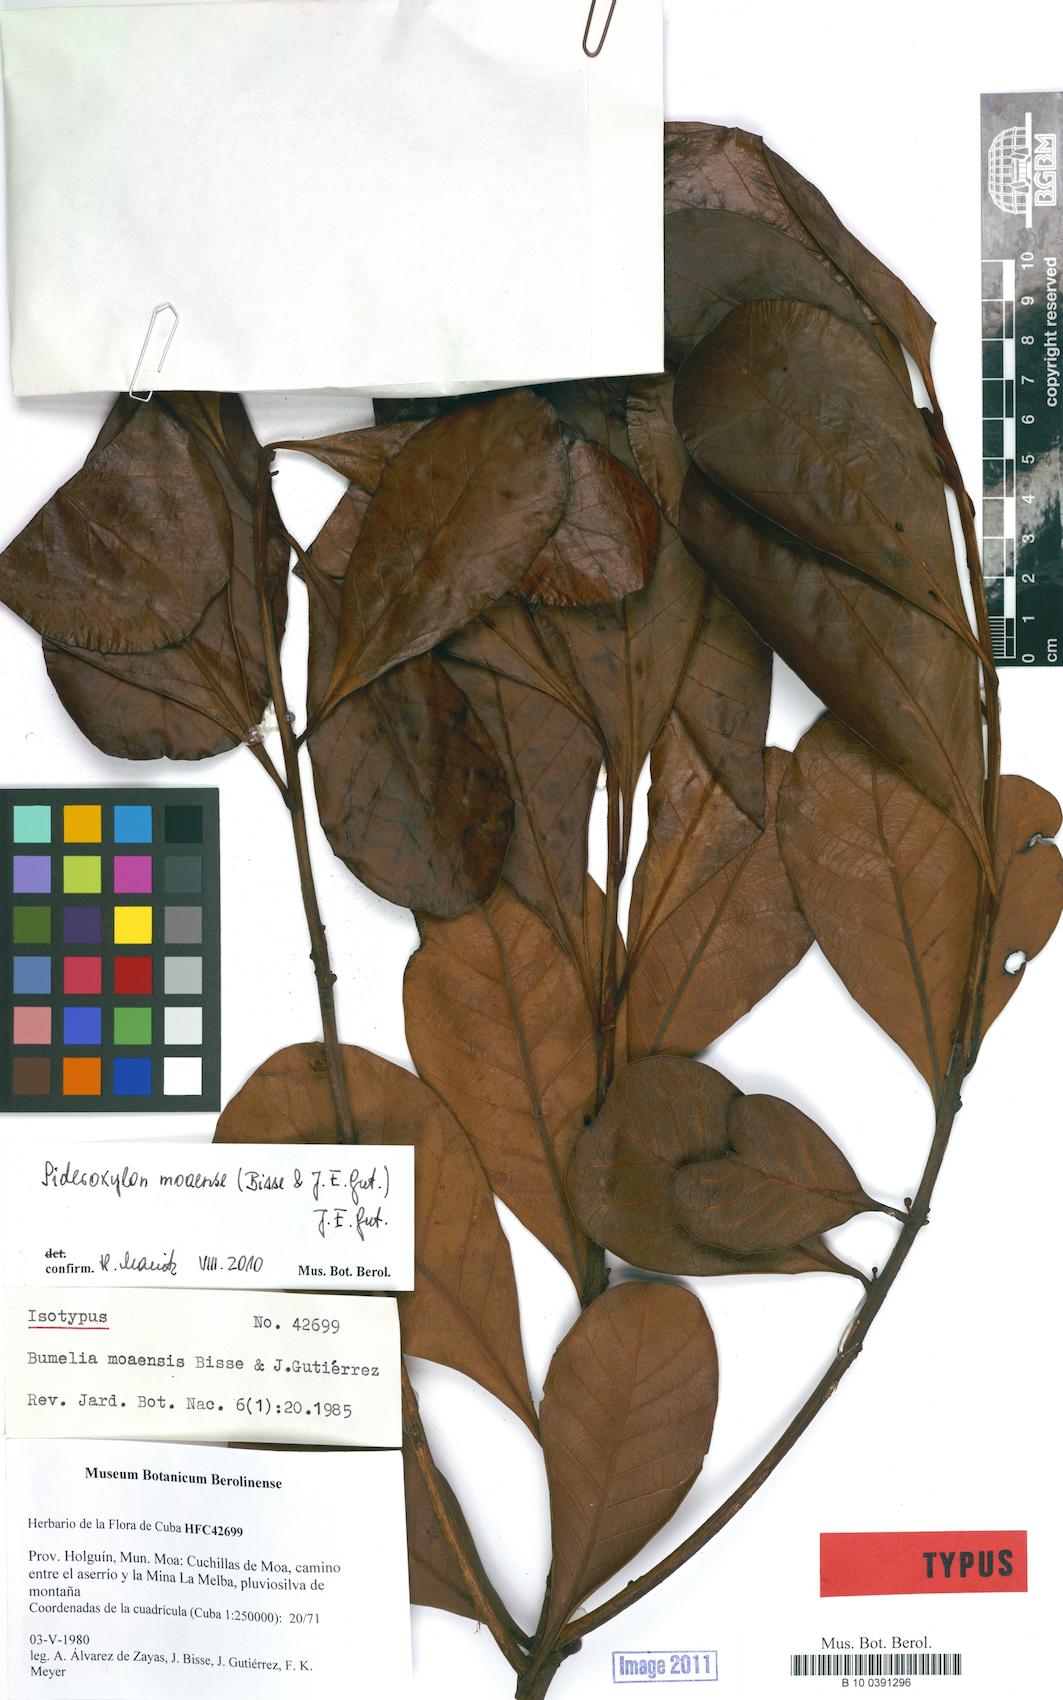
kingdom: Plantae
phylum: Tracheophyta
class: Magnoliopsida
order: Ericales
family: Sapotaceae
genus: Sideroxylon
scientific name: Sideroxylon moaense
